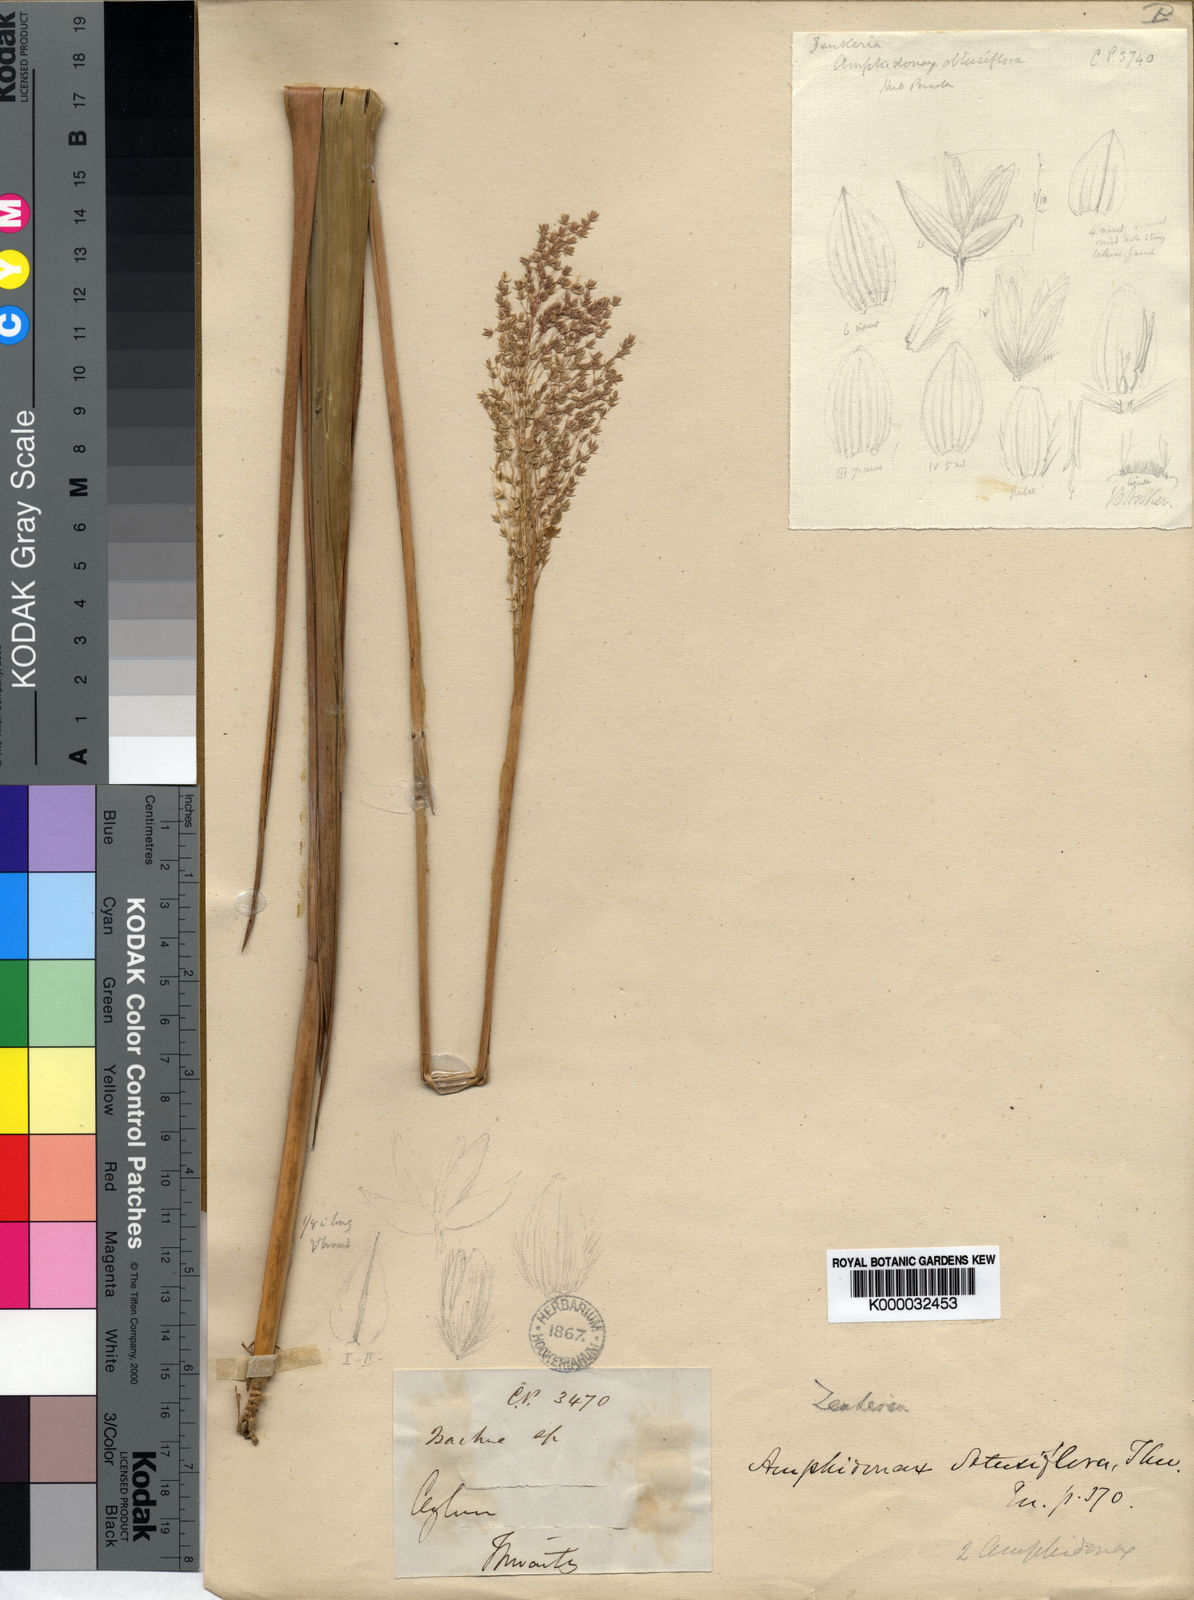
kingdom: Plantae
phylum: Tracheophyta
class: Liliopsida
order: Poales
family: Poaceae
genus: Zenkeria
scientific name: Zenkeria obtusiflora
